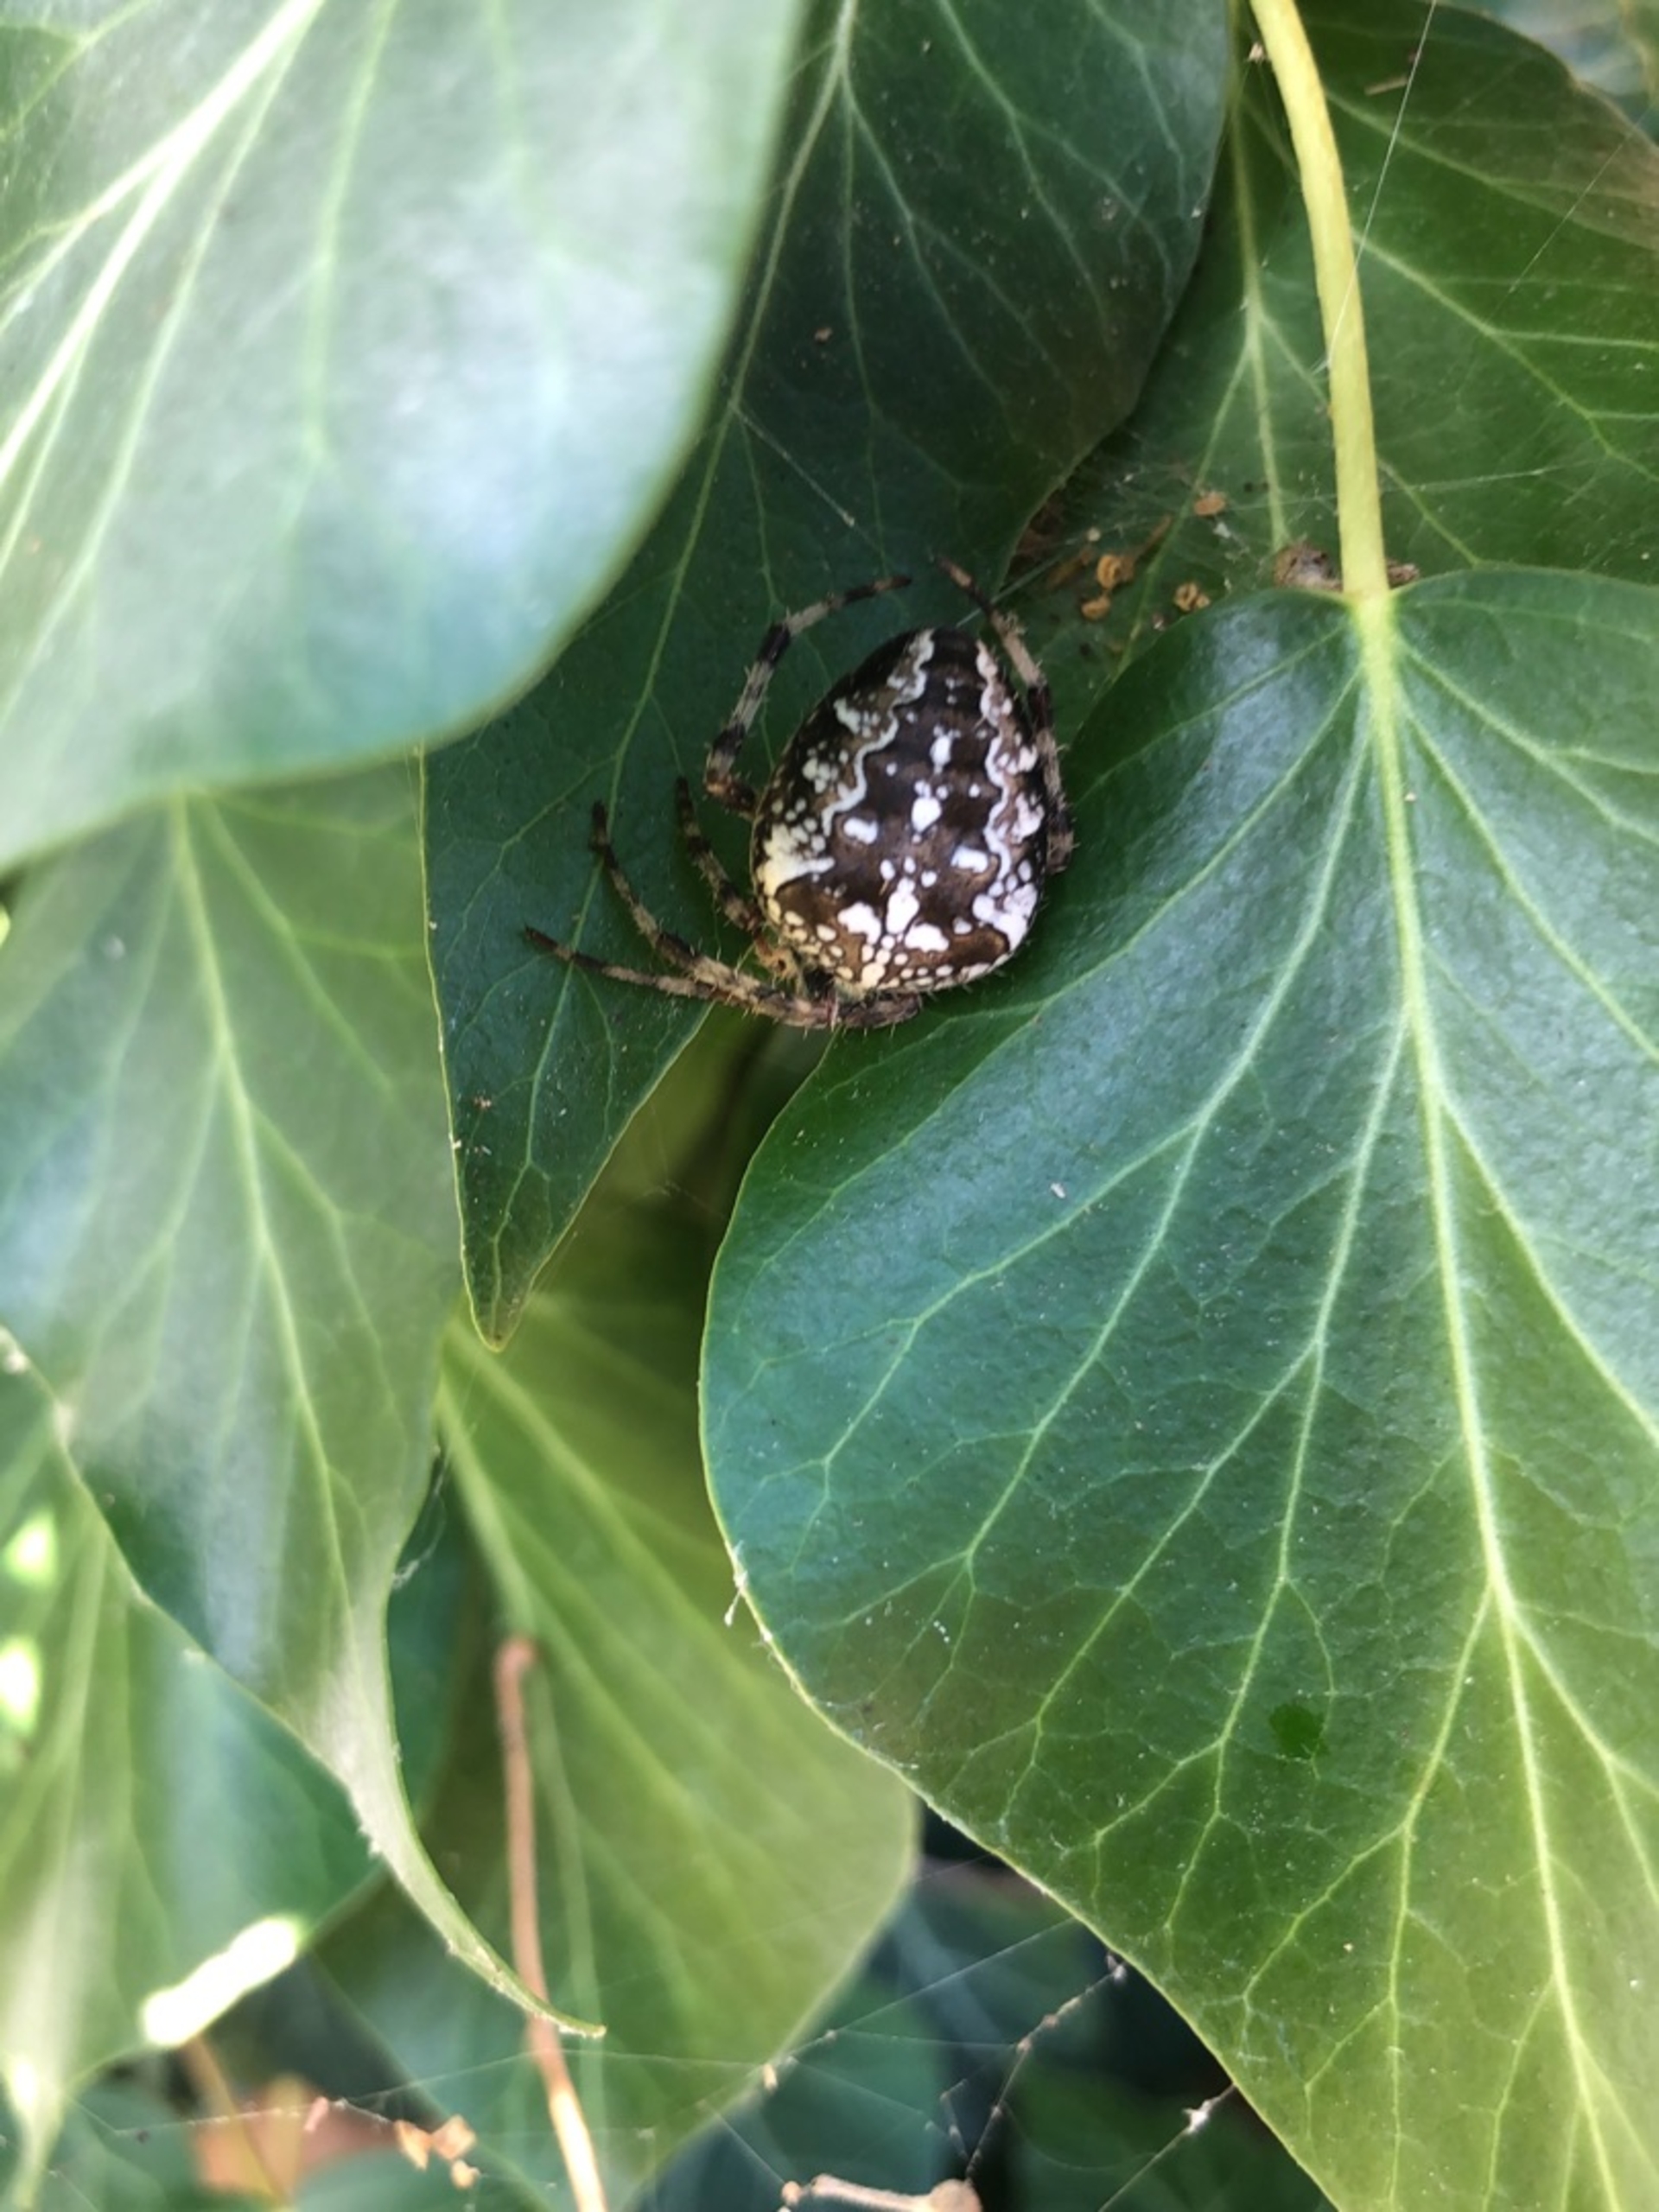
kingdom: Animalia
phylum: Arthropoda
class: Arachnida
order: Araneae
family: Araneidae
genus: Araneus
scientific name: Araneus diadematus
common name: Korsedderkop
